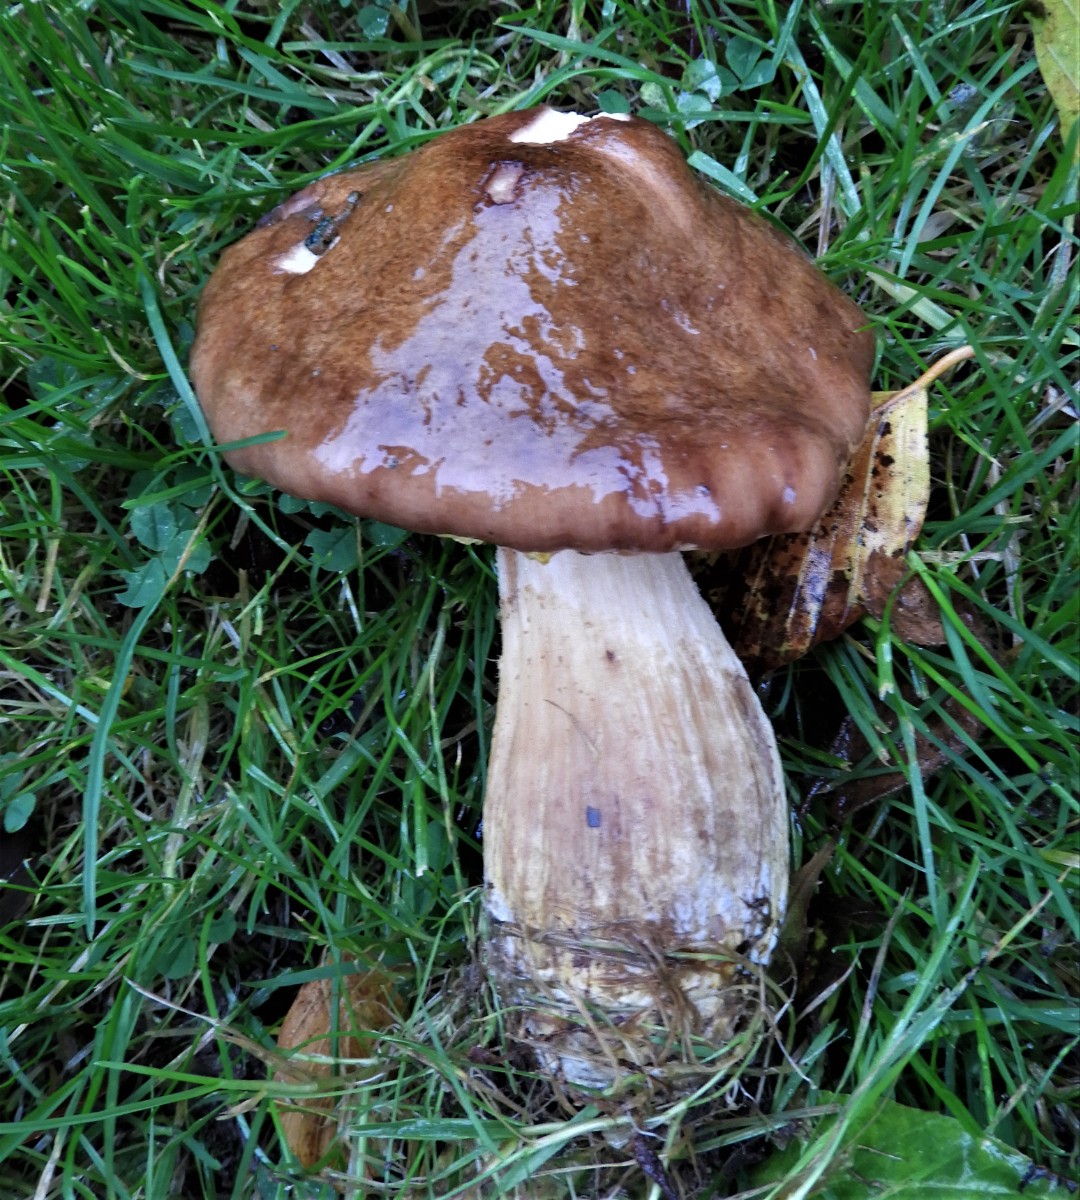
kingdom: Fungi
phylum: Basidiomycota
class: Agaricomycetes
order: Agaricales
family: Physalacriaceae
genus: Armillaria
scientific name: Armillaria lutea
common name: køllestokket honningsvamp
